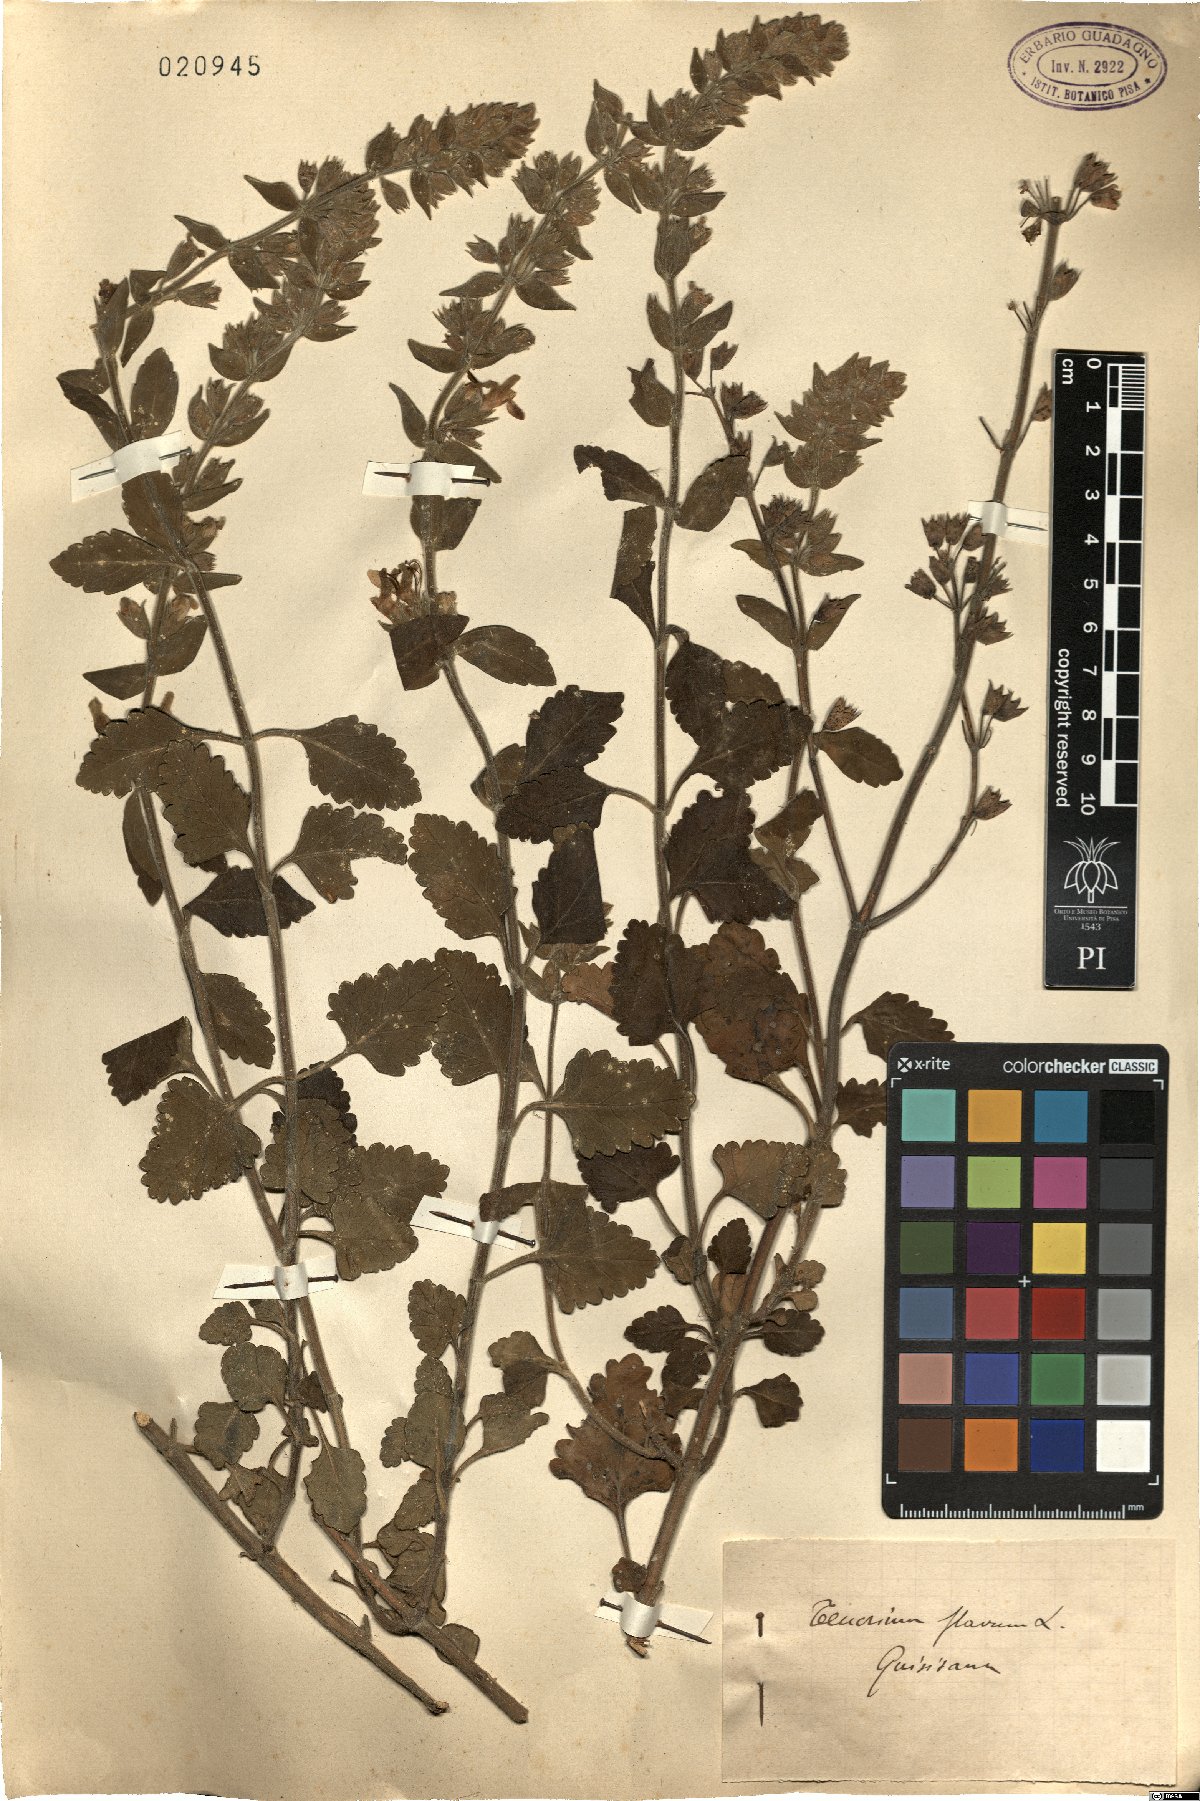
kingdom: Plantae
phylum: Tracheophyta
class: Magnoliopsida
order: Lamiales
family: Lamiaceae
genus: Teucrium
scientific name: Teucrium flavum
